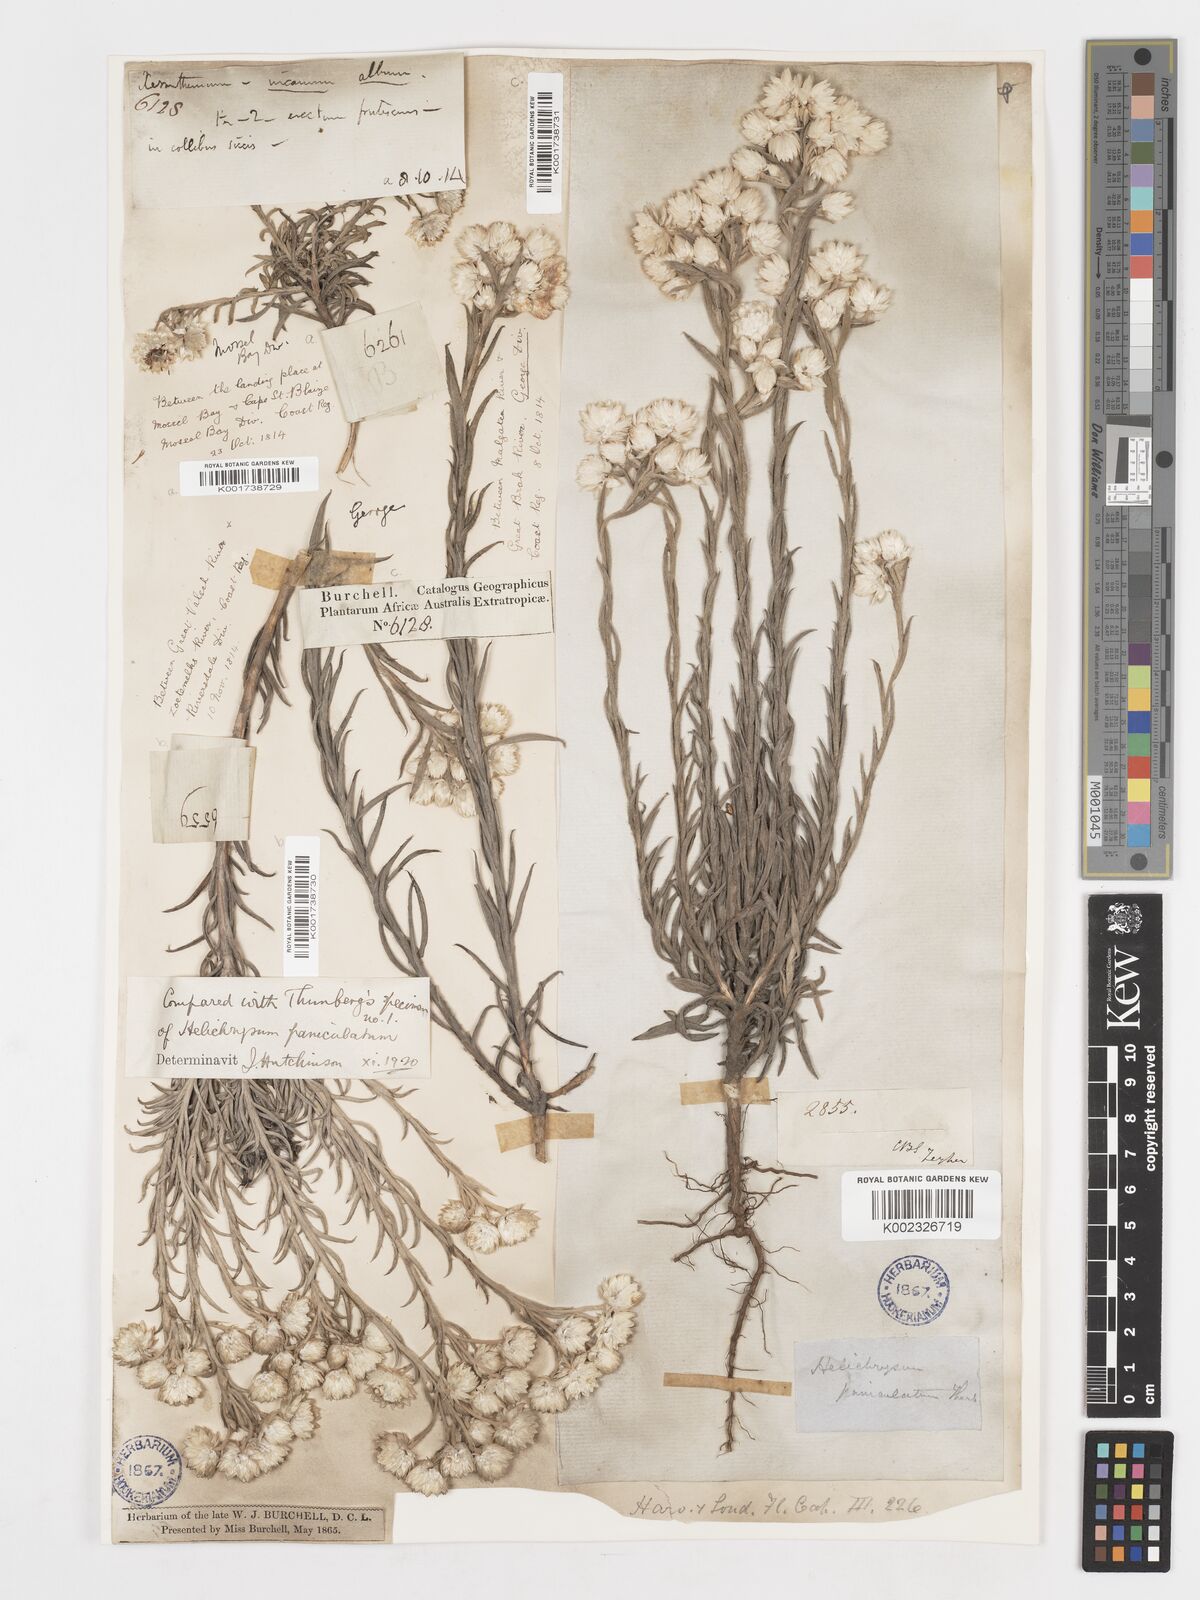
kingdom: Plantae
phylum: Tracheophyta
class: Magnoliopsida
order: Asterales
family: Asteraceae
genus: Achyranthemum
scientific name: Achyranthemum paniculatum
